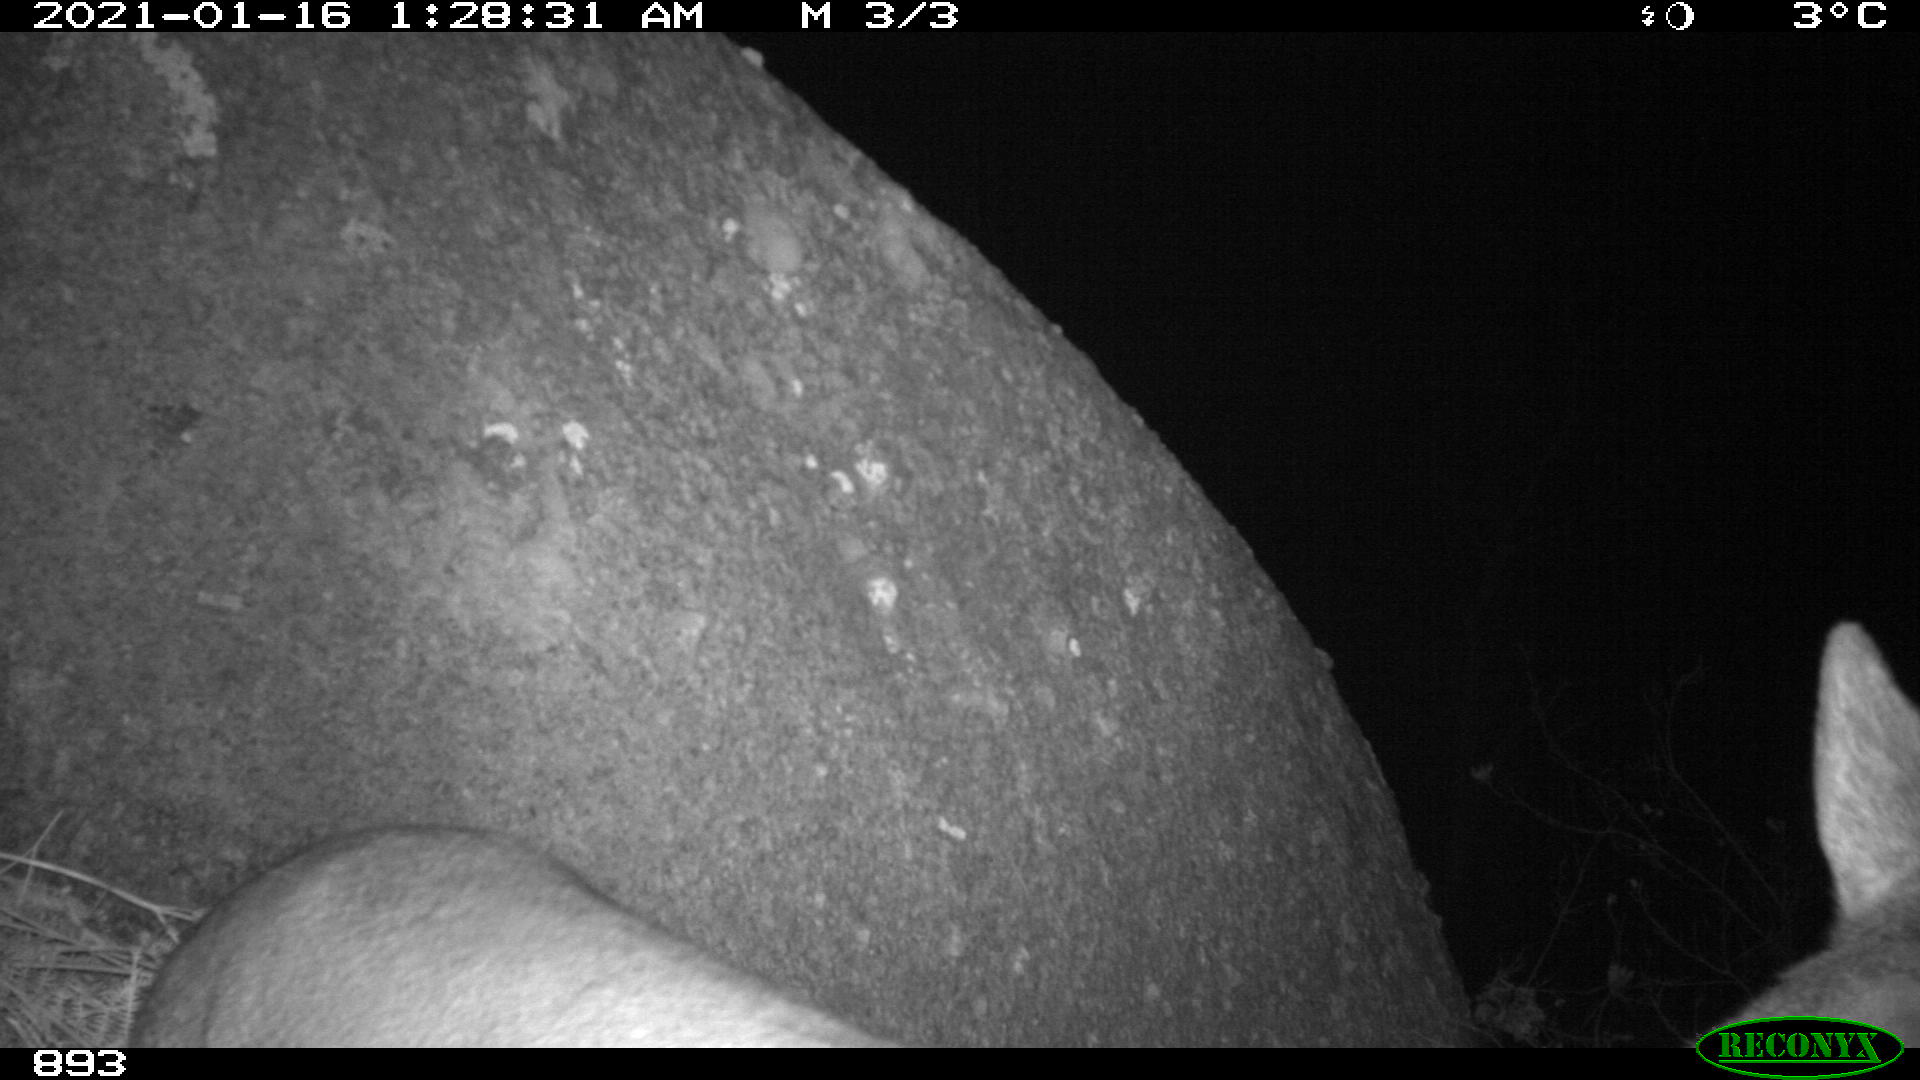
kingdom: Animalia
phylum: Chordata
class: Mammalia
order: Artiodactyla
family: Cervidae
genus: Capreolus
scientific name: Capreolus capreolus
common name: Western roe deer
